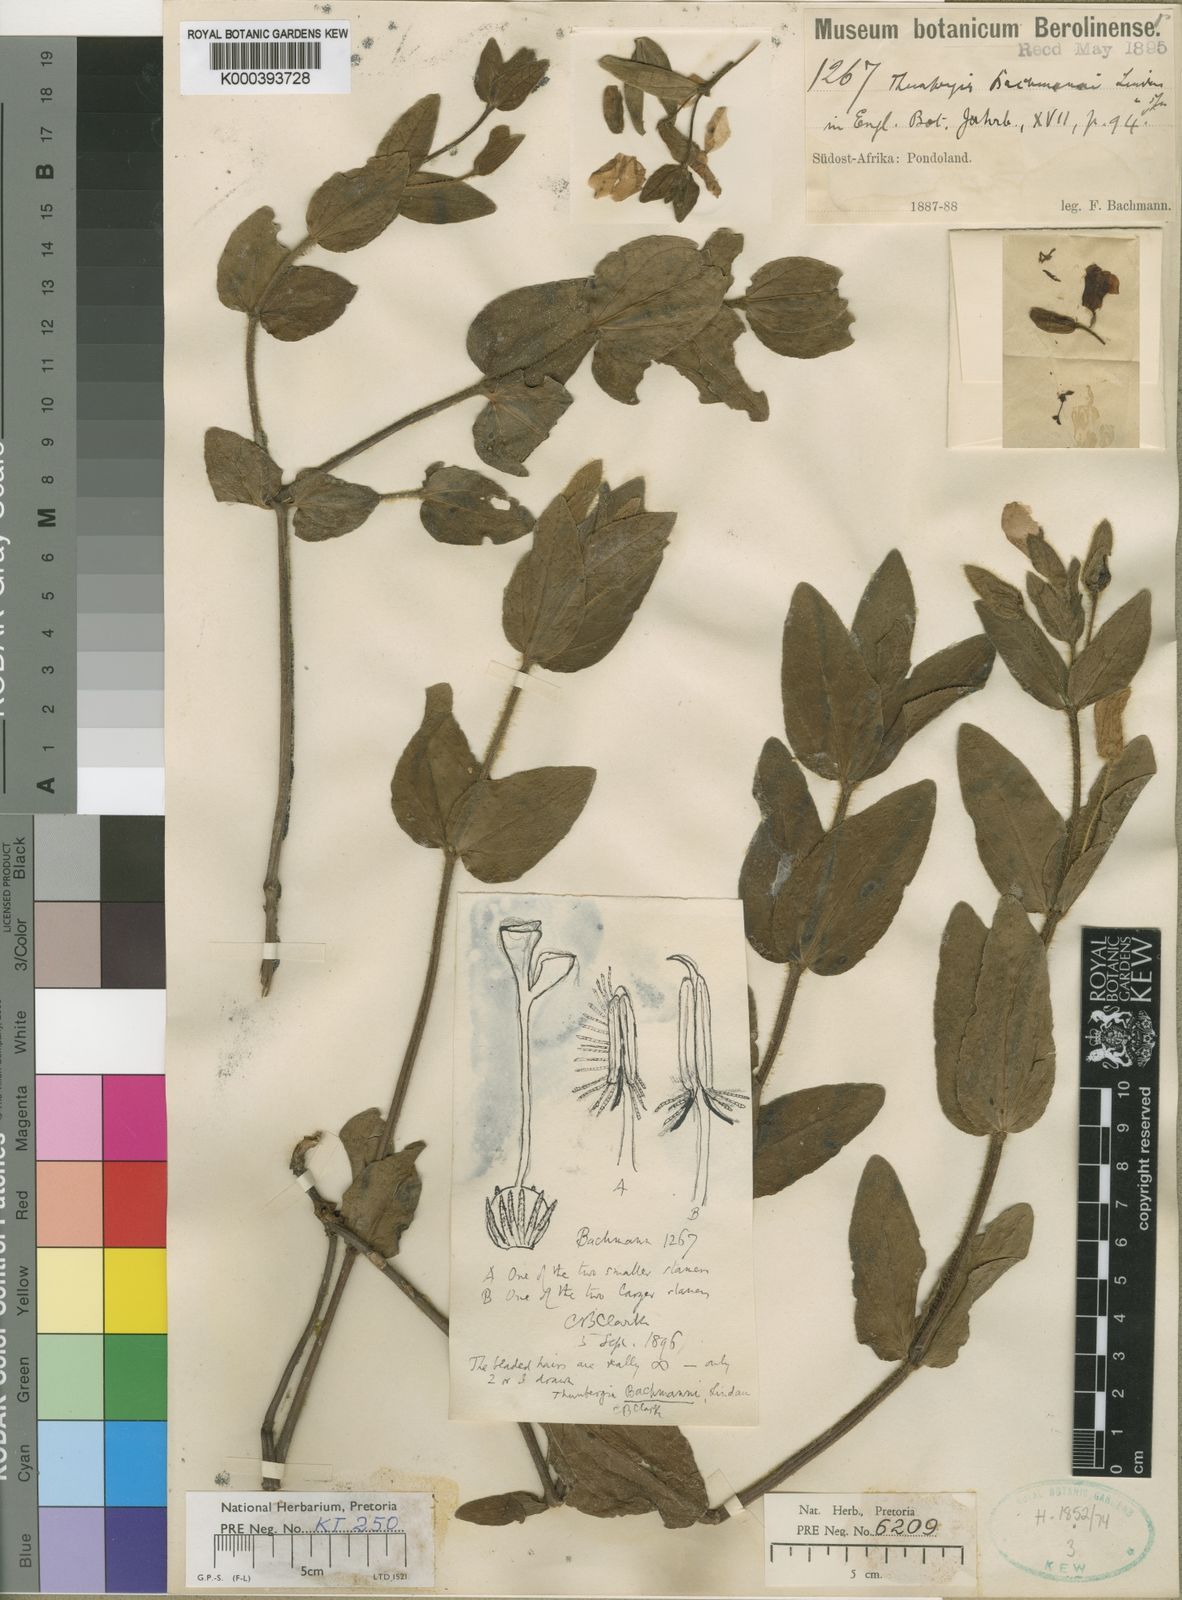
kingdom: Plantae
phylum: Tracheophyta
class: Magnoliopsida
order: Lamiales
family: Acanthaceae
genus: Thunbergia
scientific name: Thunbergia atriplicifolia
